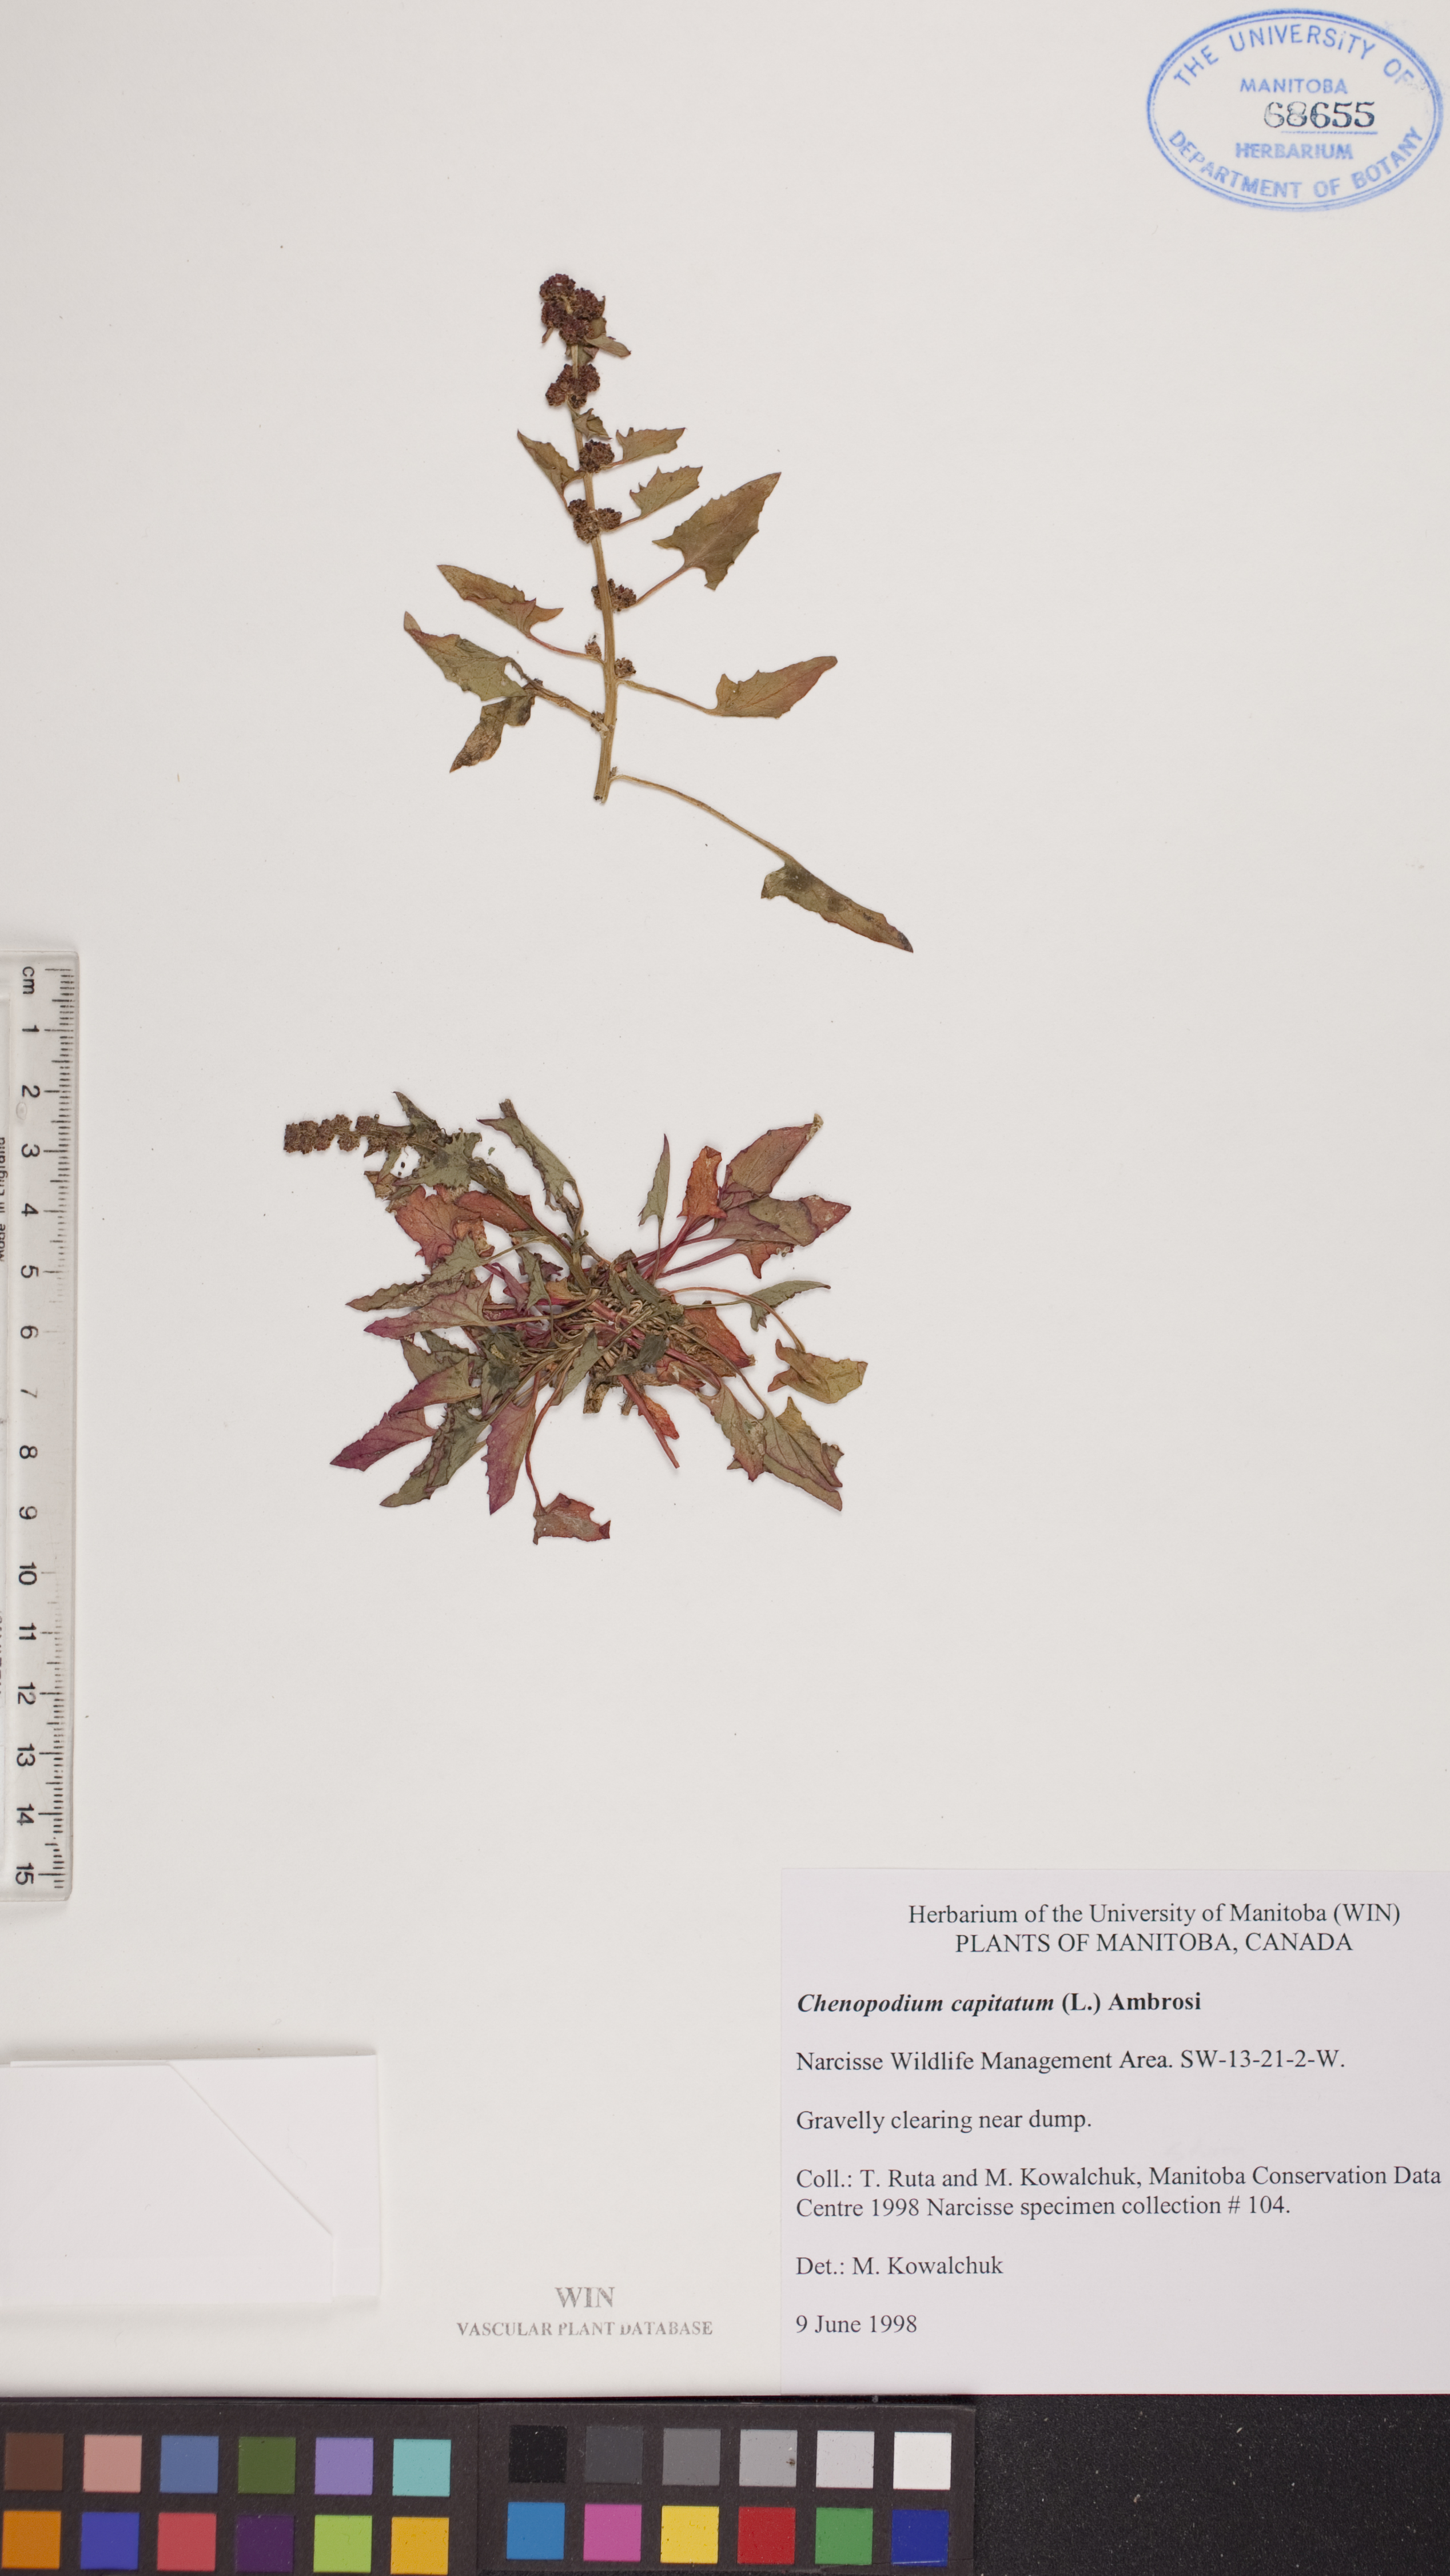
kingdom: Plantae
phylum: Tracheophyta
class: Magnoliopsida
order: Caryophyllales
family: Amaranthaceae
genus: Blitum
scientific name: Blitum capitatum
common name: Strawberry-blight
